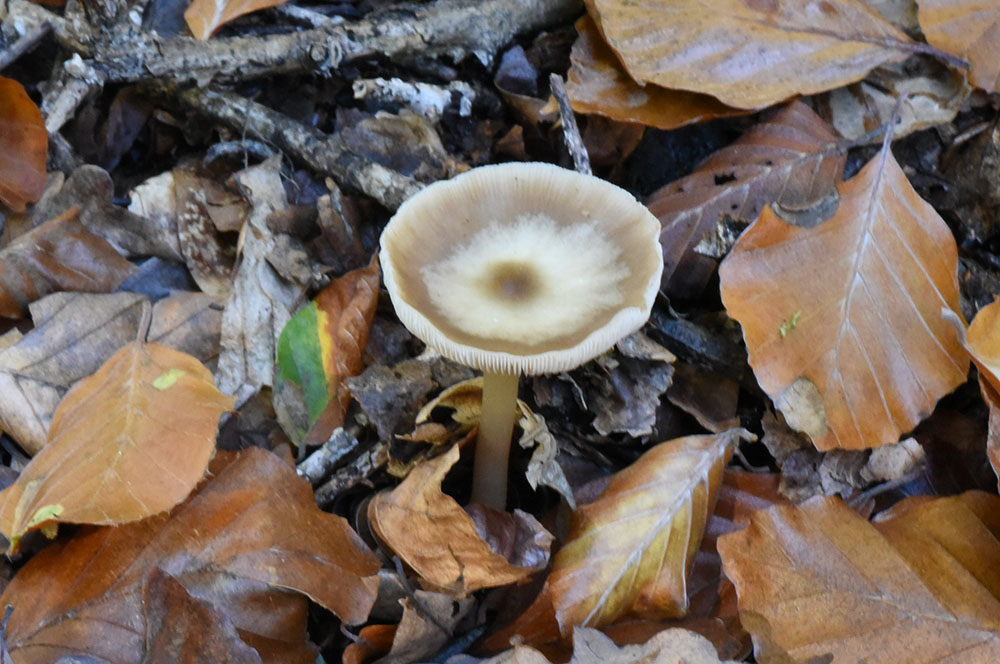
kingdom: Fungi
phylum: Basidiomycota
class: Agaricomycetes
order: Agaricales
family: Omphalotaceae
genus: Rhodocollybia
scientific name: Rhodocollybia butyracea
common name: Butter cap
